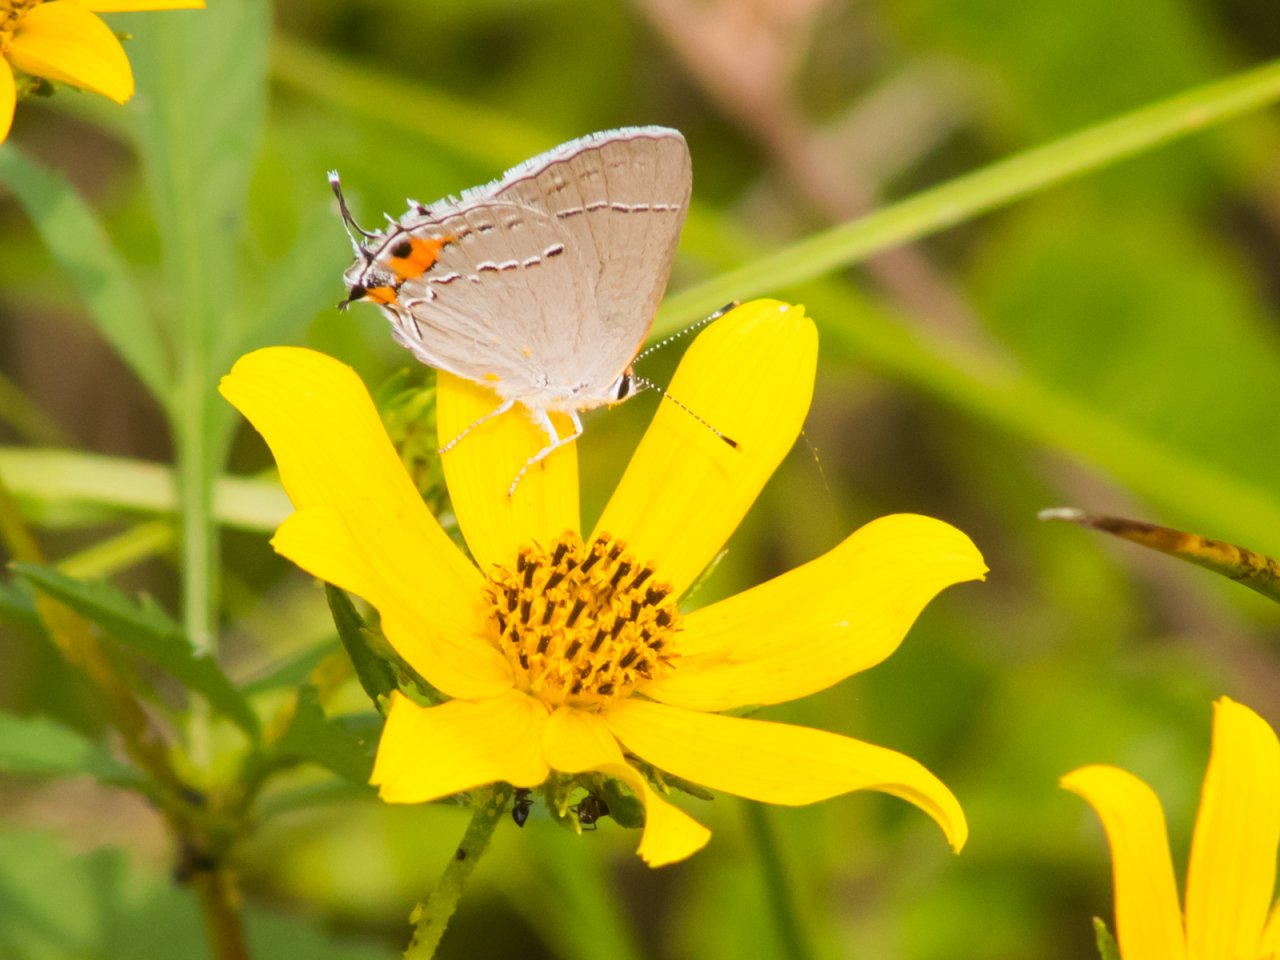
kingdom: Animalia
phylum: Arthropoda
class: Insecta
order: Lepidoptera
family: Lycaenidae
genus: Strymon
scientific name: Strymon melinus
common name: Gray Hairstreak
